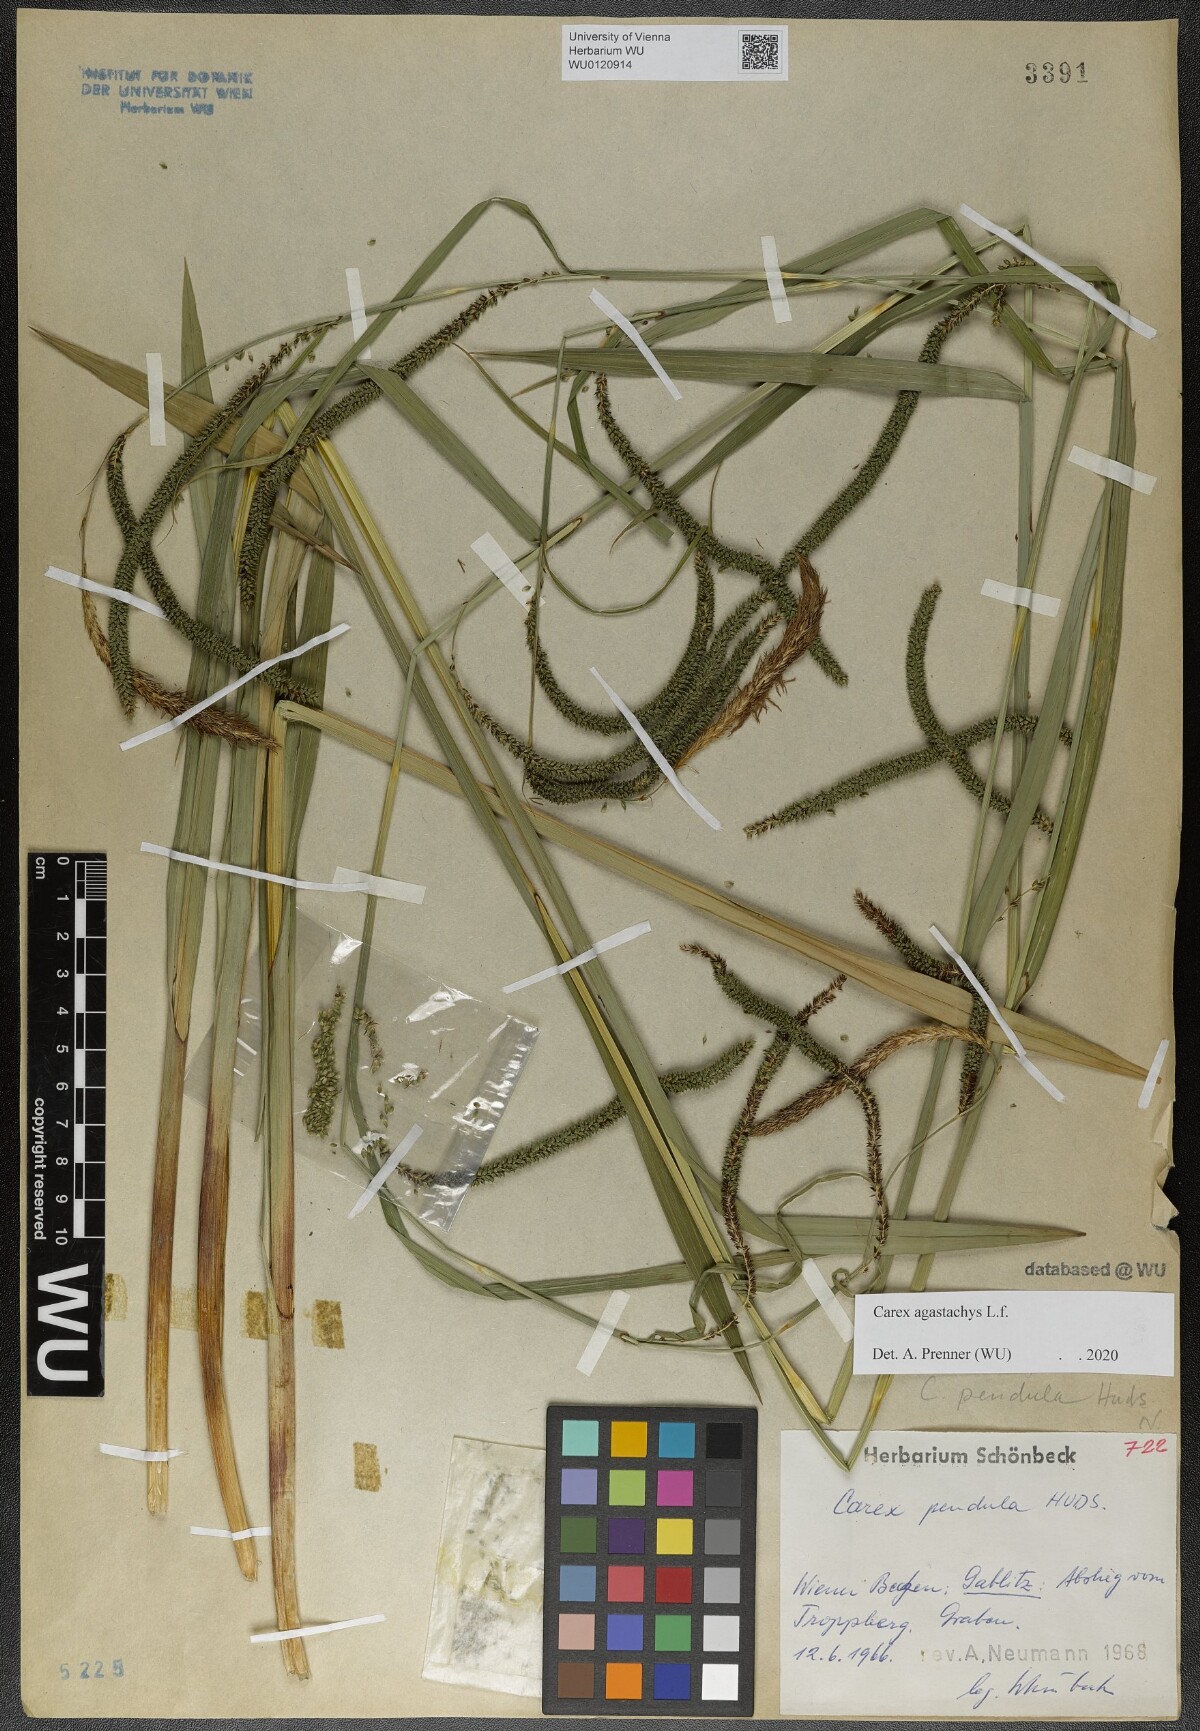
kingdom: Plantae
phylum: Tracheophyta
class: Liliopsida
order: Poales
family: Cyperaceae
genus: Carex
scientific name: Carex agastachys
